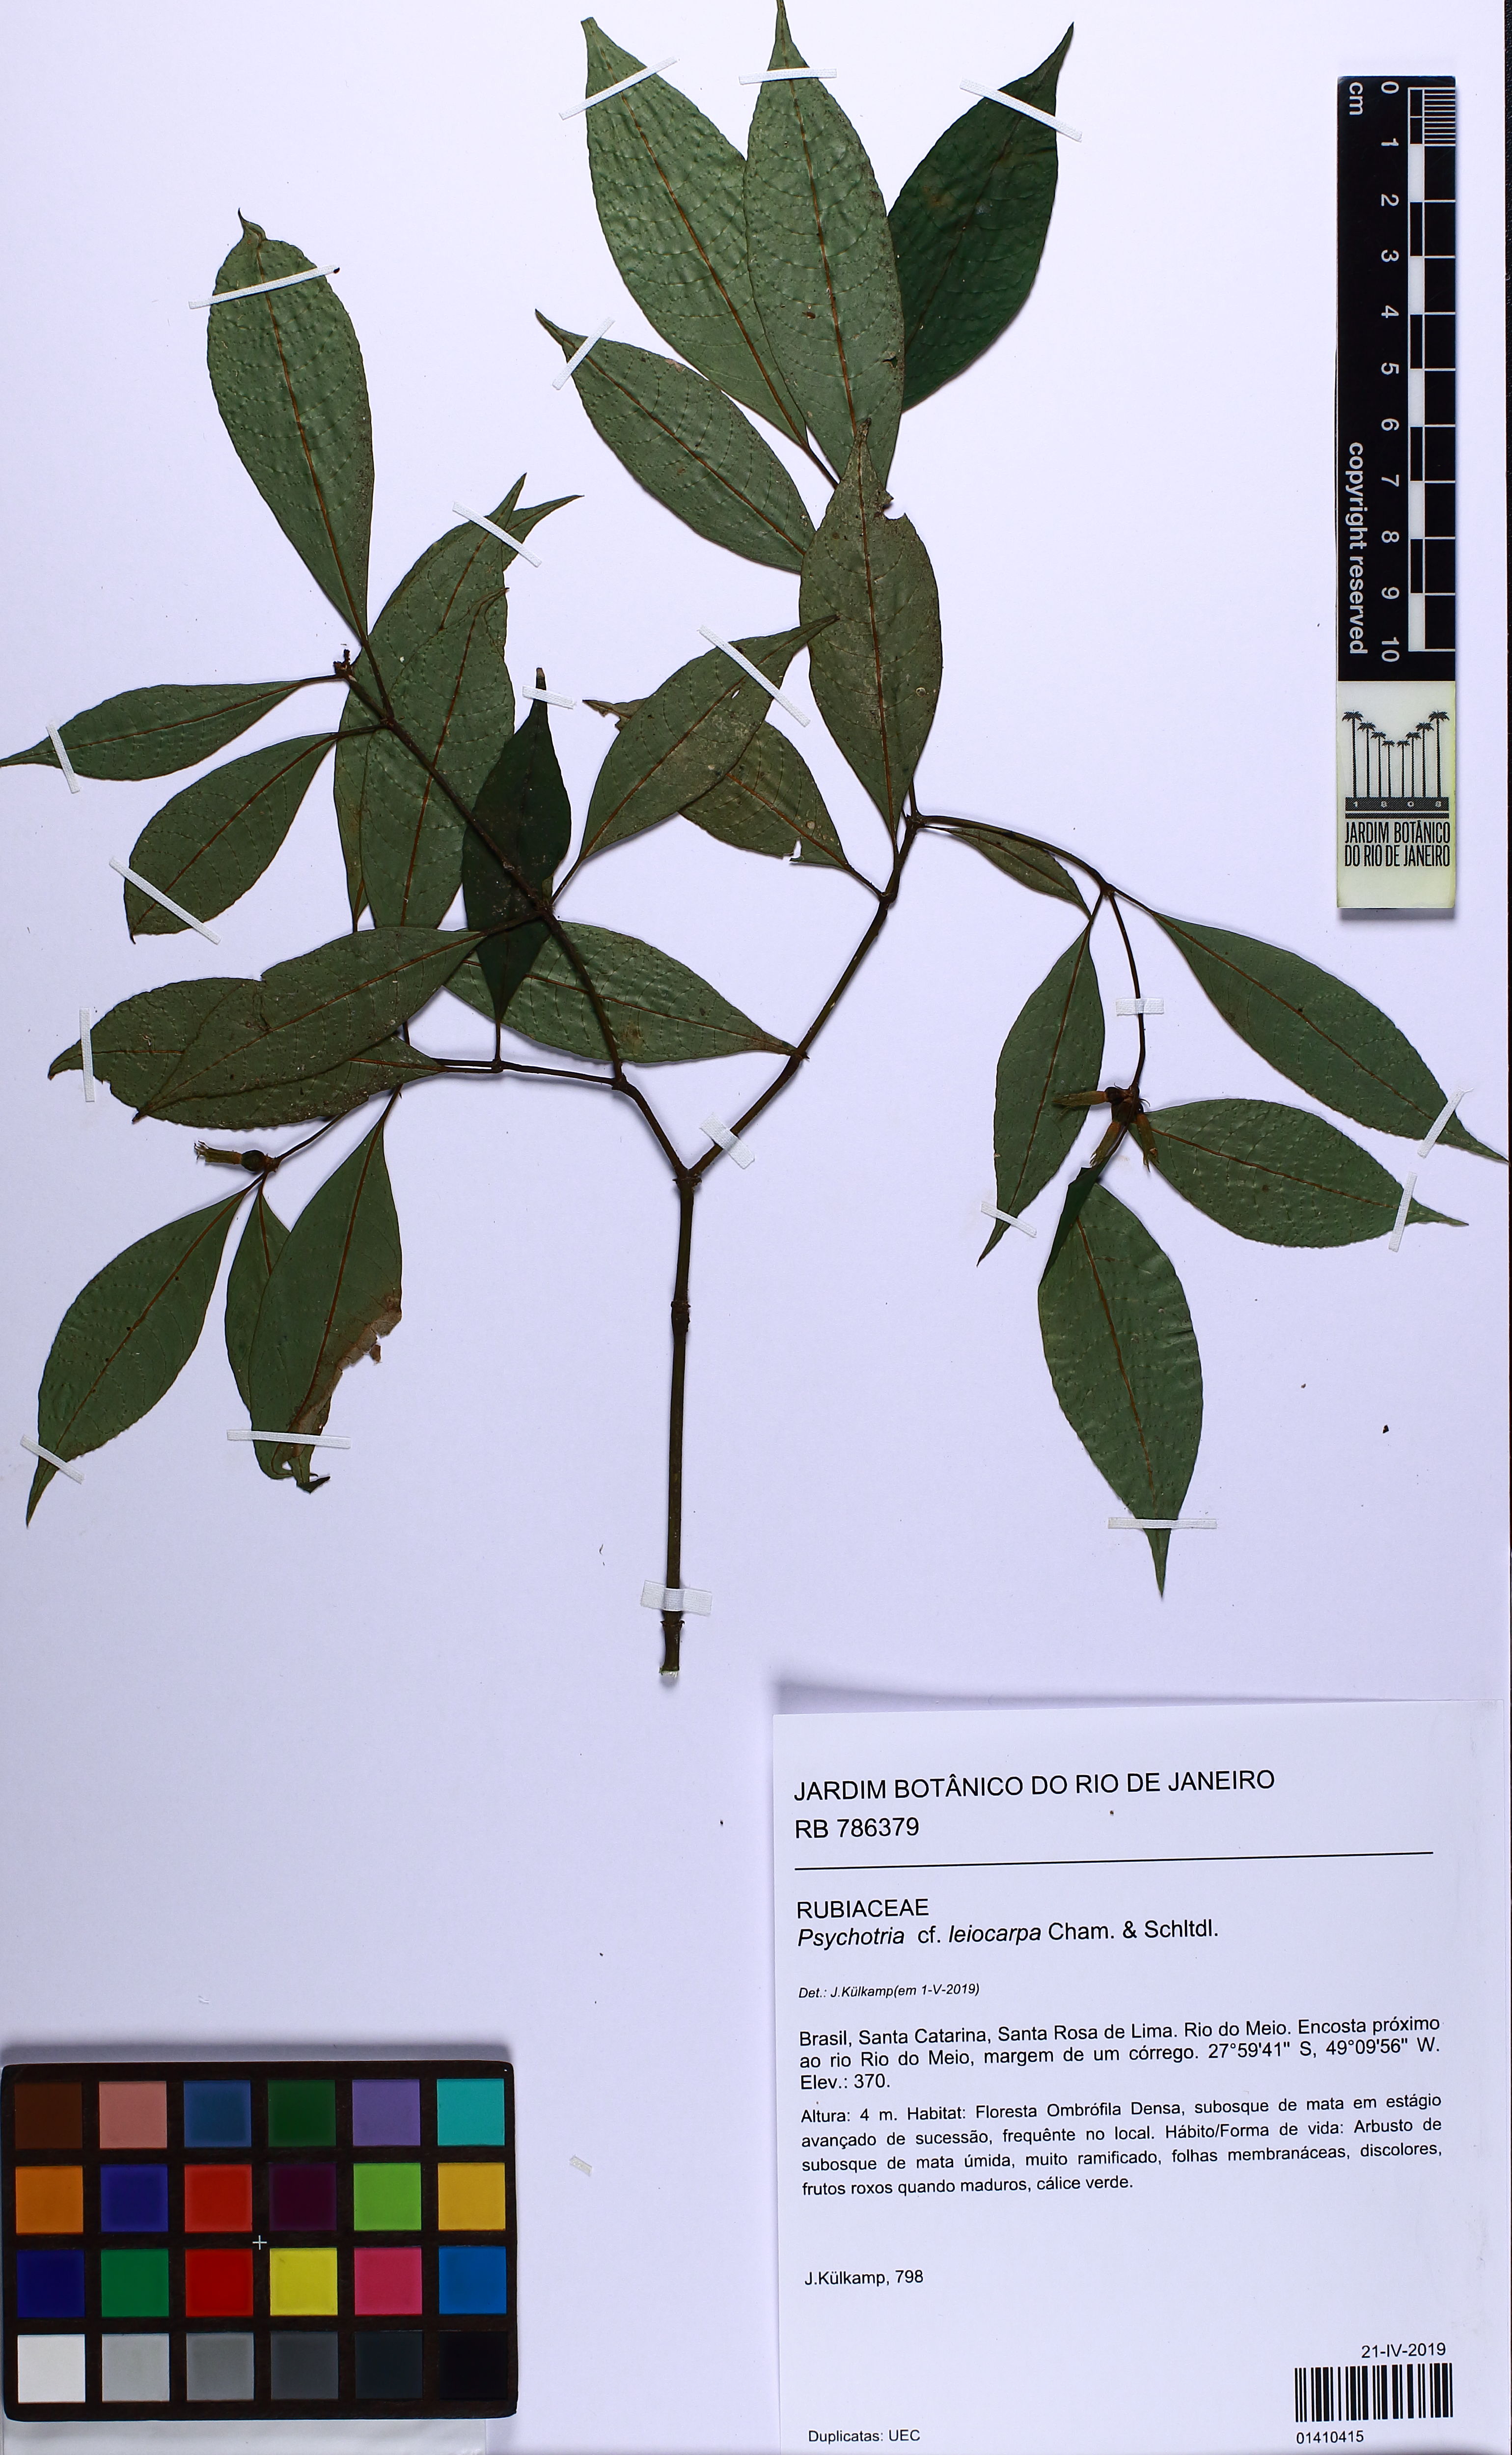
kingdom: Plantae
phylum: Tracheophyta
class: Magnoliopsida
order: Gentianales
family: Rubiaceae
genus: Psychotria
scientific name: Psychotria leiocarpa
